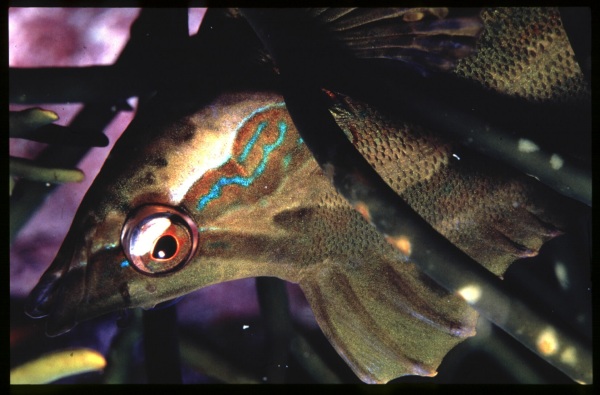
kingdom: Animalia
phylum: Chordata
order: Perciformes
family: Clinidae
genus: Pavoclinus
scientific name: Pavoclinus pavo
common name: Peacock klipfish
